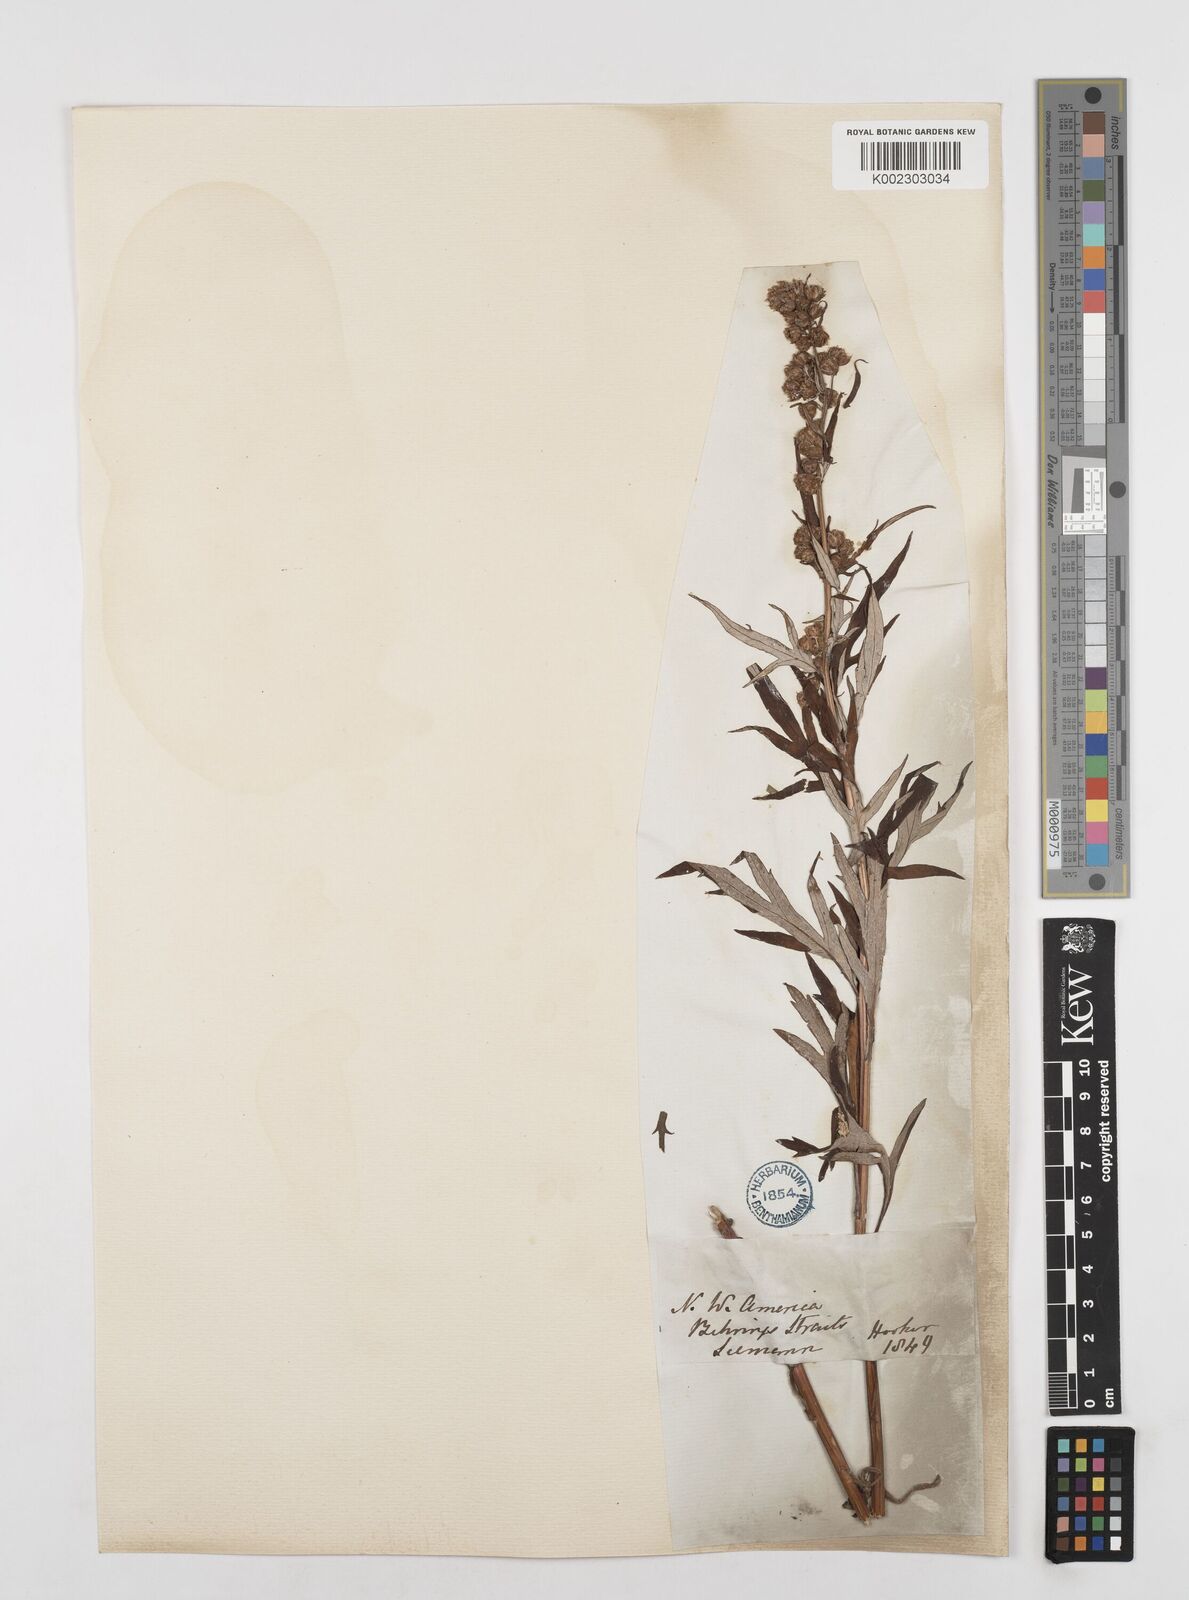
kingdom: Plantae
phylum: Tracheophyta
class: Magnoliopsida
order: Asterales
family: Asteraceae
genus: Artemisia
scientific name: Artemisia tilesii
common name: Aleutian mugwort
